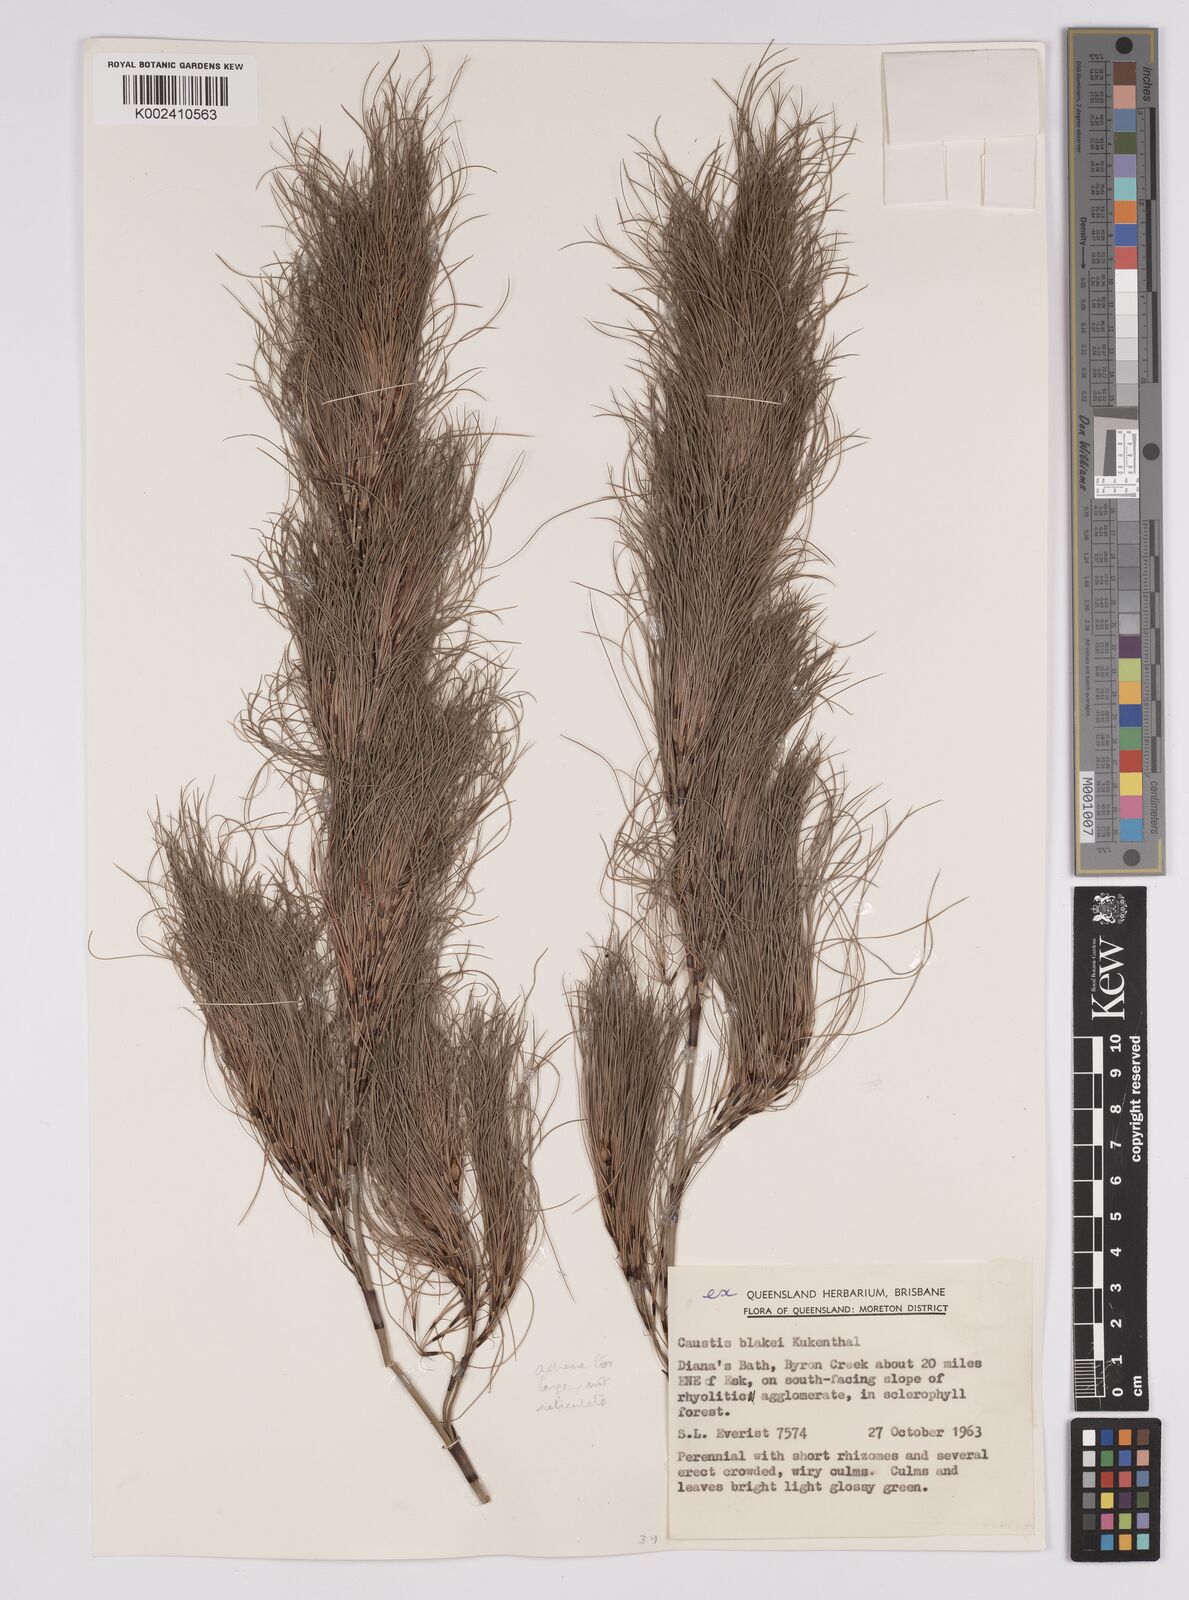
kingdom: Plantae
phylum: Tracheophyta
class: Liliopsida
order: Poales
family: Cyperaceae
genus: Caustis
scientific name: Caustis blakei
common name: Foxtail-fern
